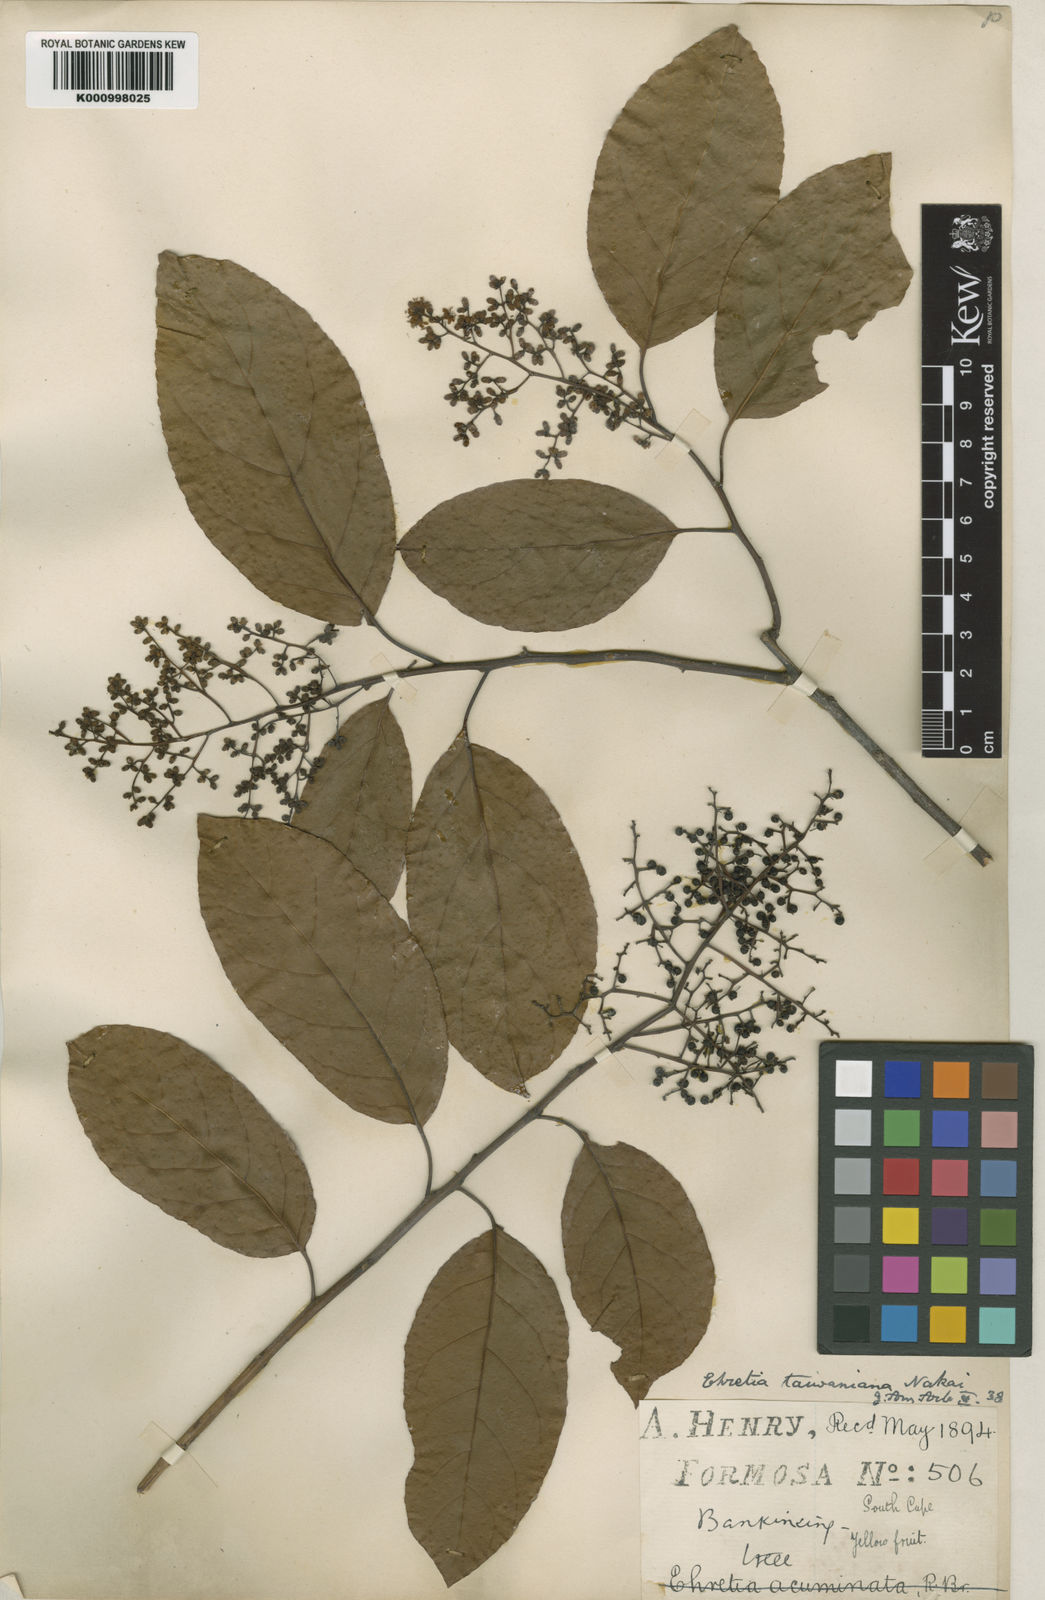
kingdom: Plantae
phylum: Tracheophyta
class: Magnoliopsida
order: Boraginales
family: Ehretiaceae
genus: Ehretia
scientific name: Ehretia acuminata
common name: Kodo wood
